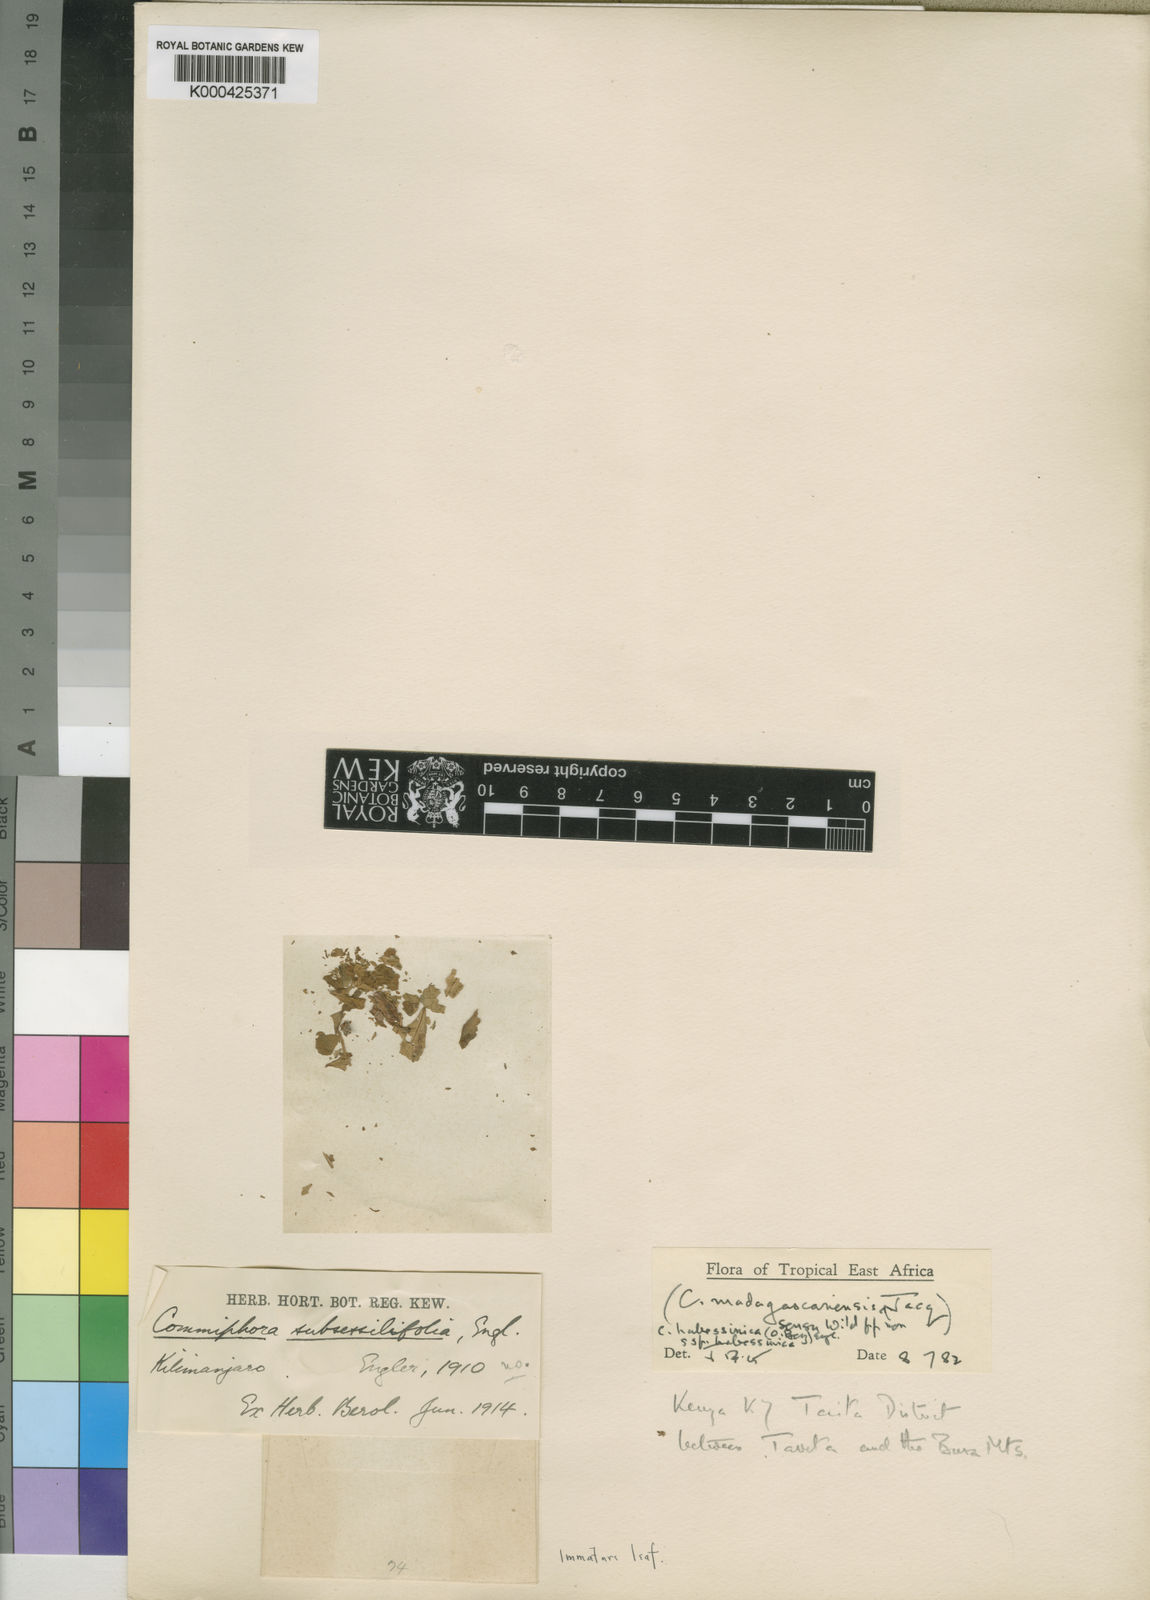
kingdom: Plantae
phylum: Tracheophyta
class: Magnoliopsida
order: Sapindales
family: Burseraceae
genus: Commiphora
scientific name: Commiphora kua
